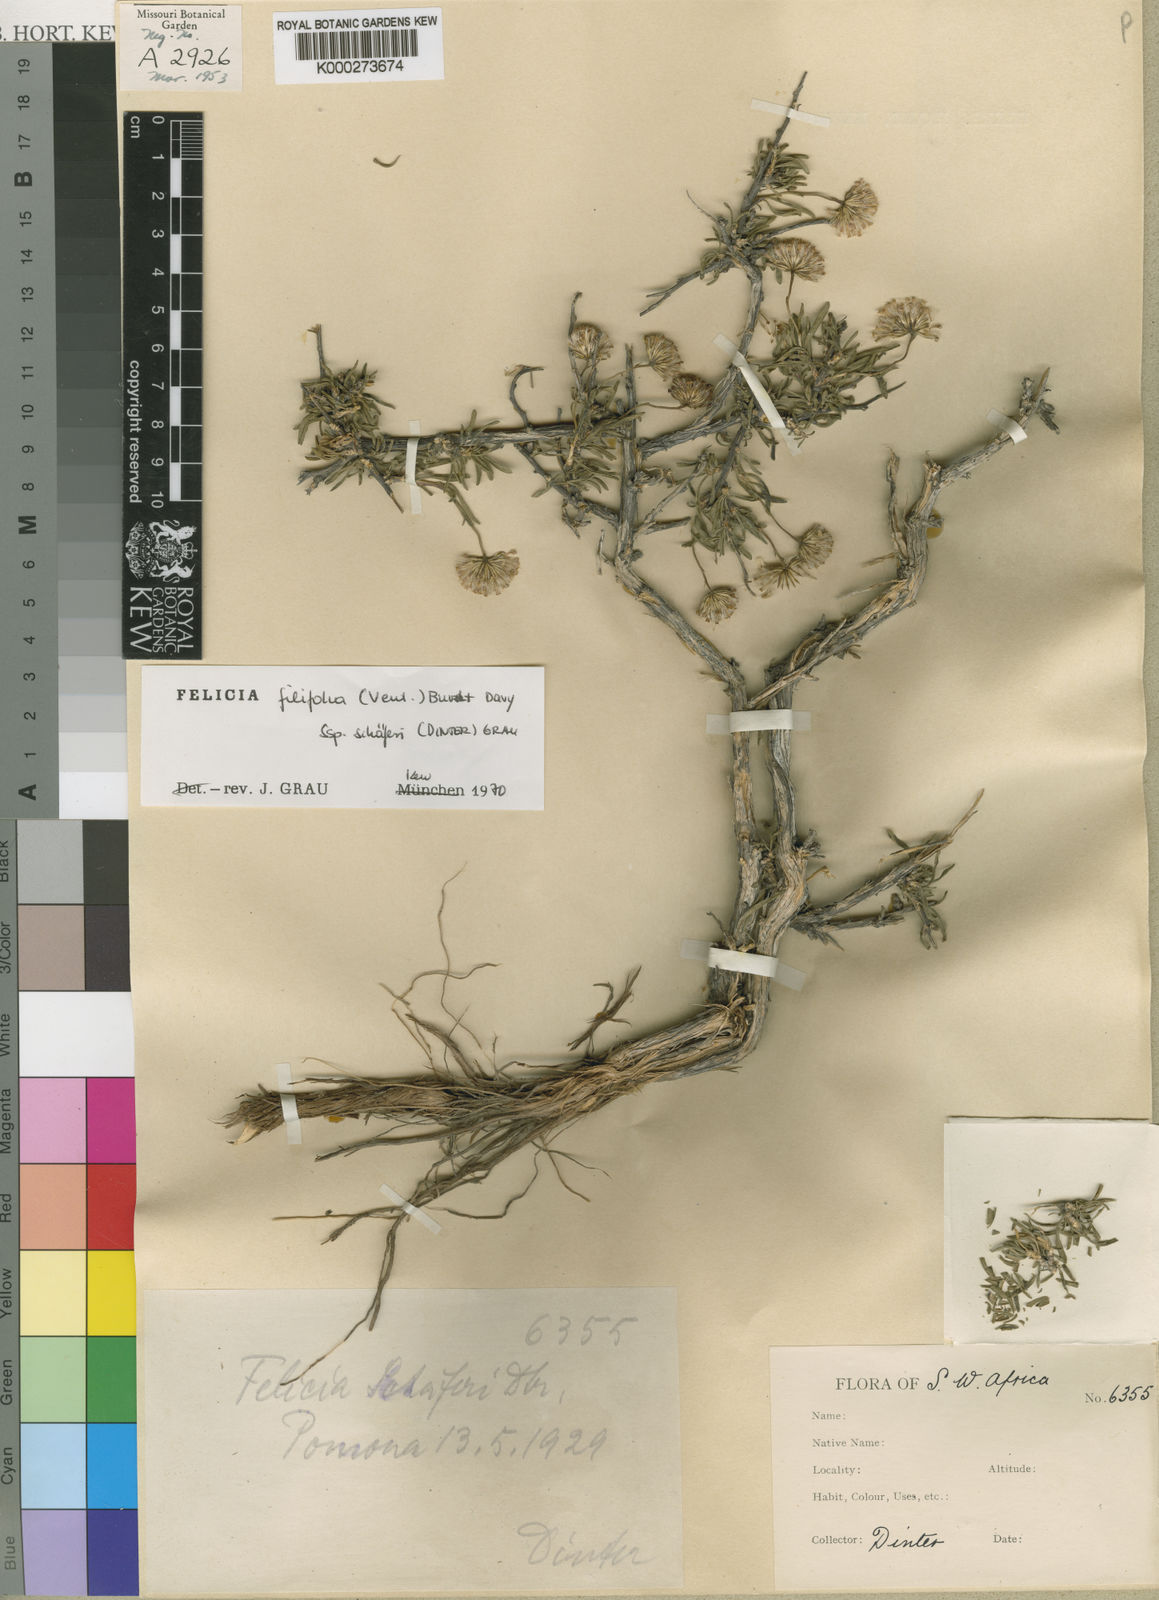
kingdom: Plantae
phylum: Tracheophyta
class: Magnoliopsida
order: Asterales
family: Asteraceae
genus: Felicia
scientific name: Felicia filifolia
